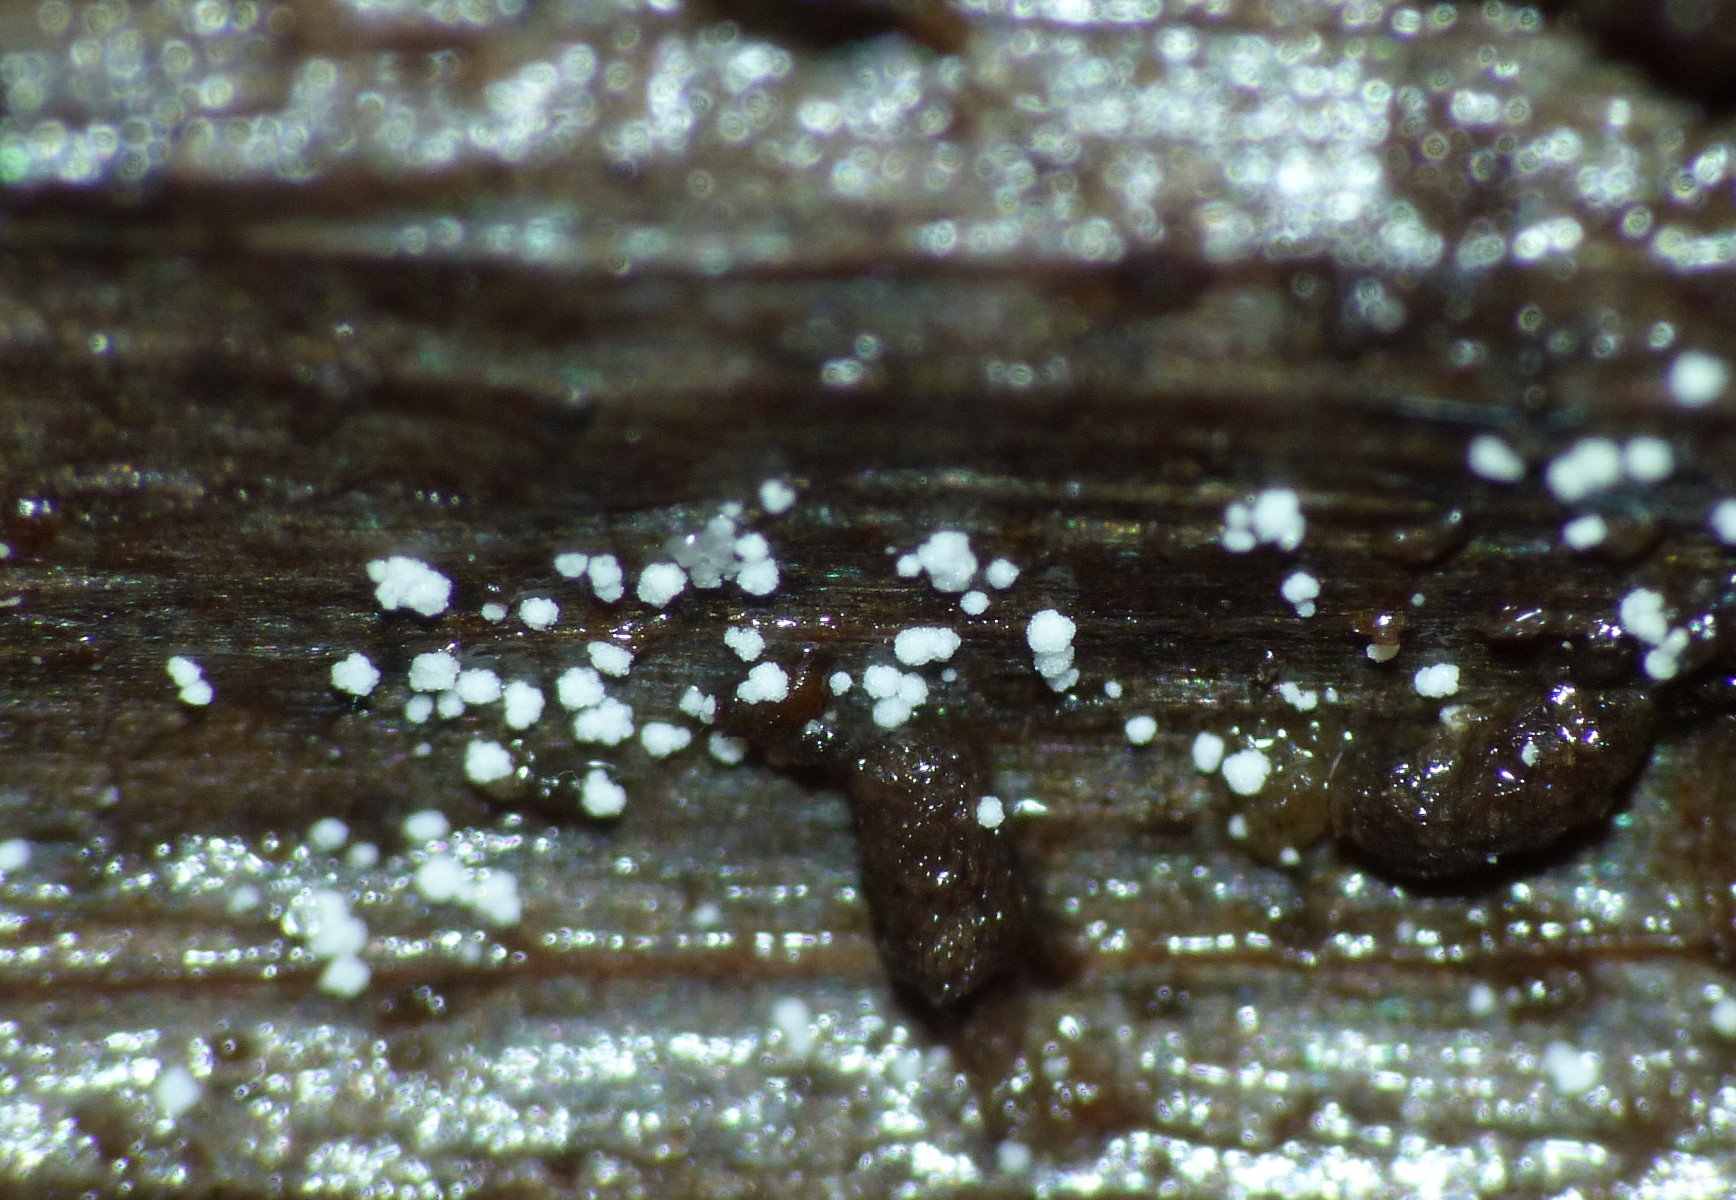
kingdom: Fungi
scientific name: Fungi
